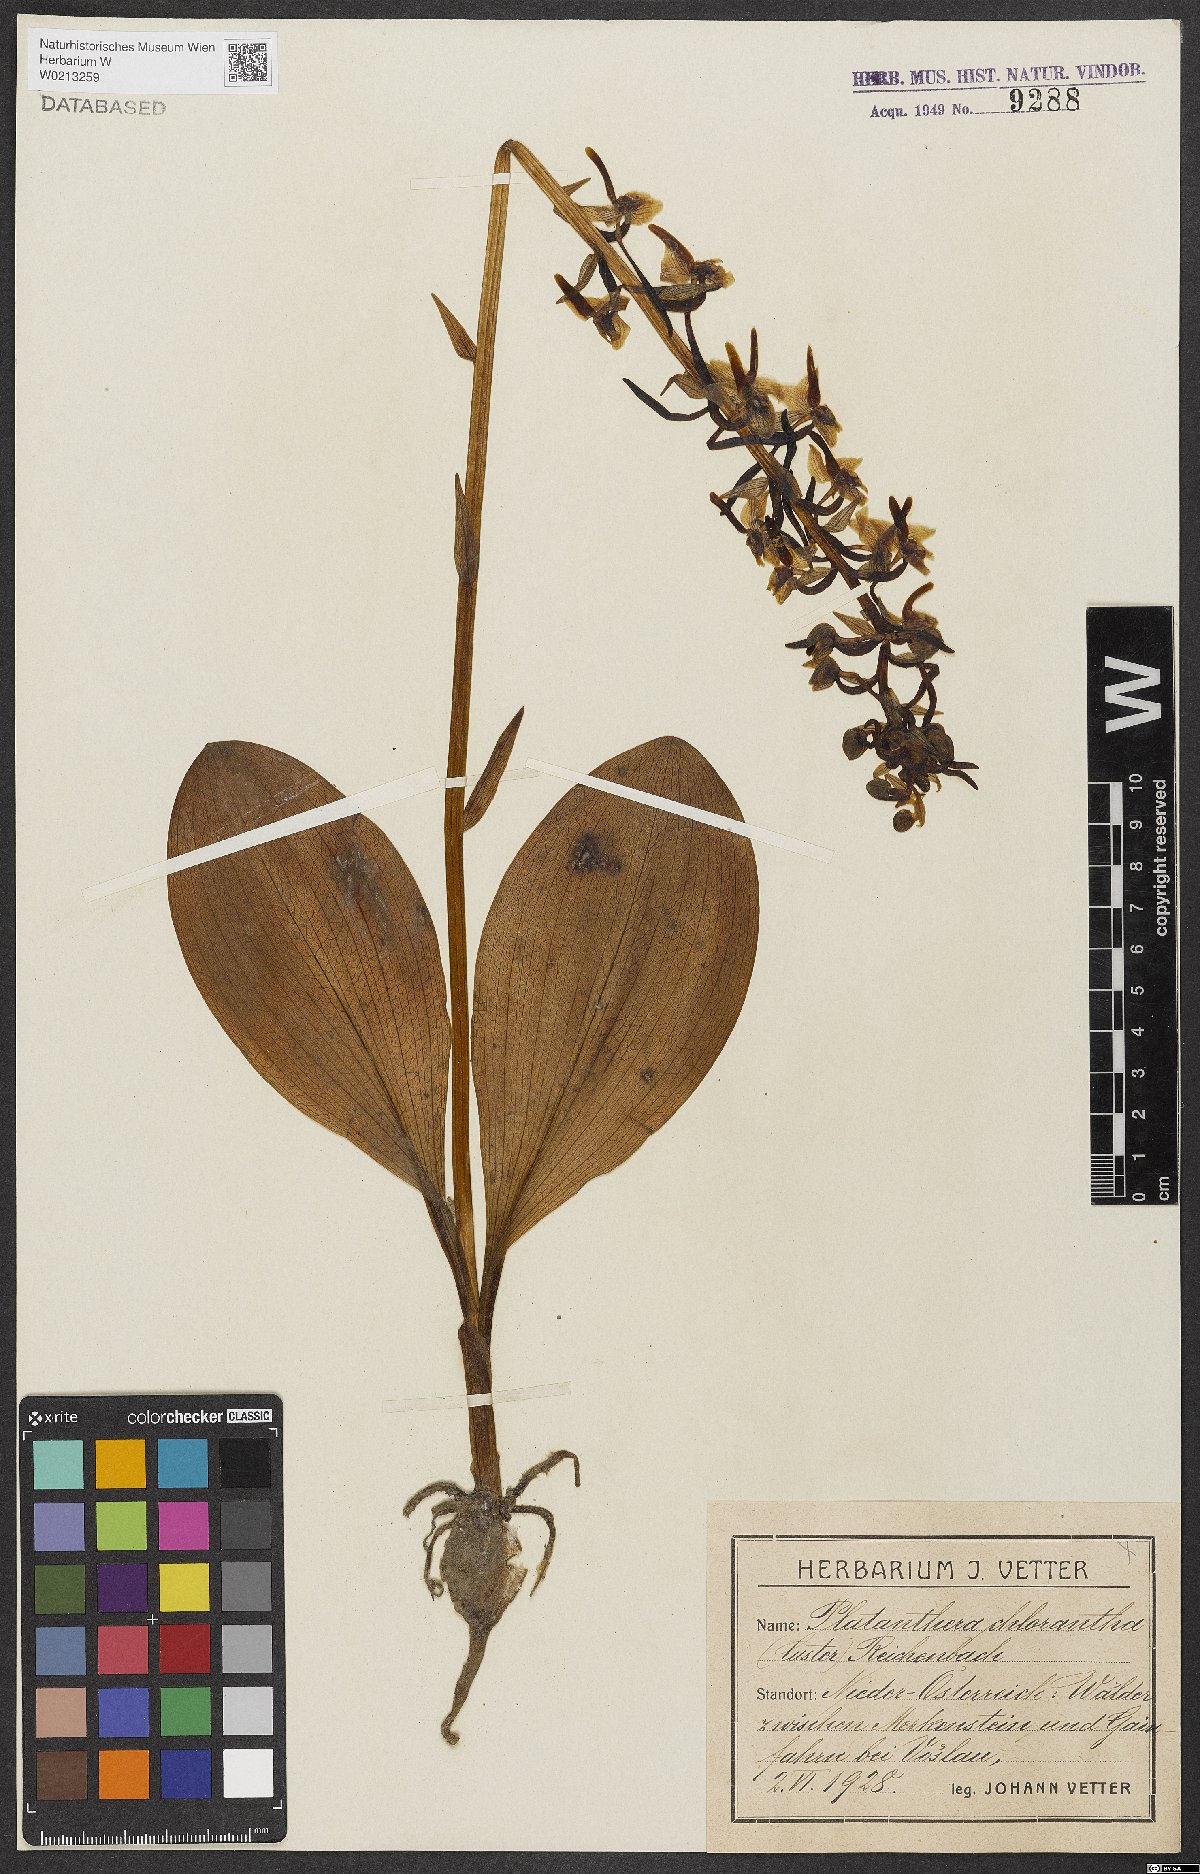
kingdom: Plantae
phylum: Tracheophyta
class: Liliopsida
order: Asparagales
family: Orchidaceae
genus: Platanthera
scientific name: Platanthera chlorantha
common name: Greater butterfly-orchid
